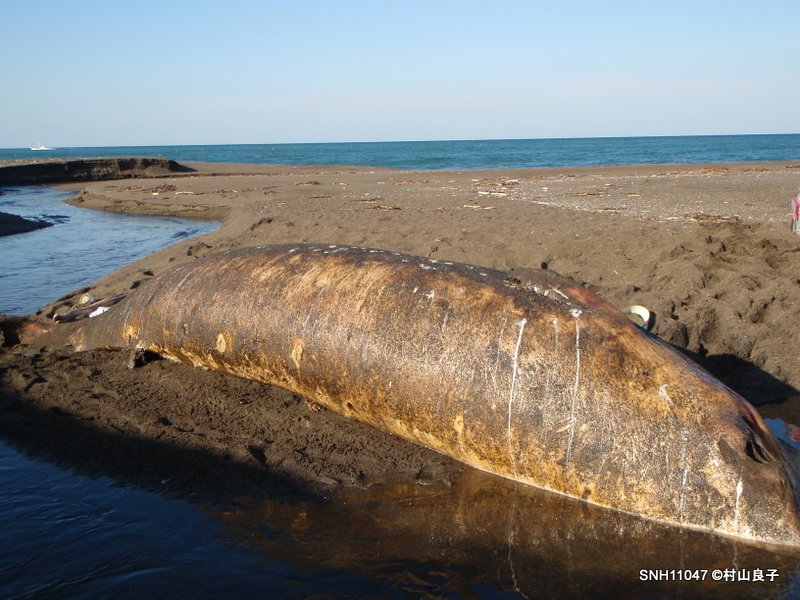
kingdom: Animalia
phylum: Chordata
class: Mammalia
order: Cetacea
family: Balaenopteridae
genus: Balaenoptera
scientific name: Balaenoptera acutorostrata
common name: Minke whale
